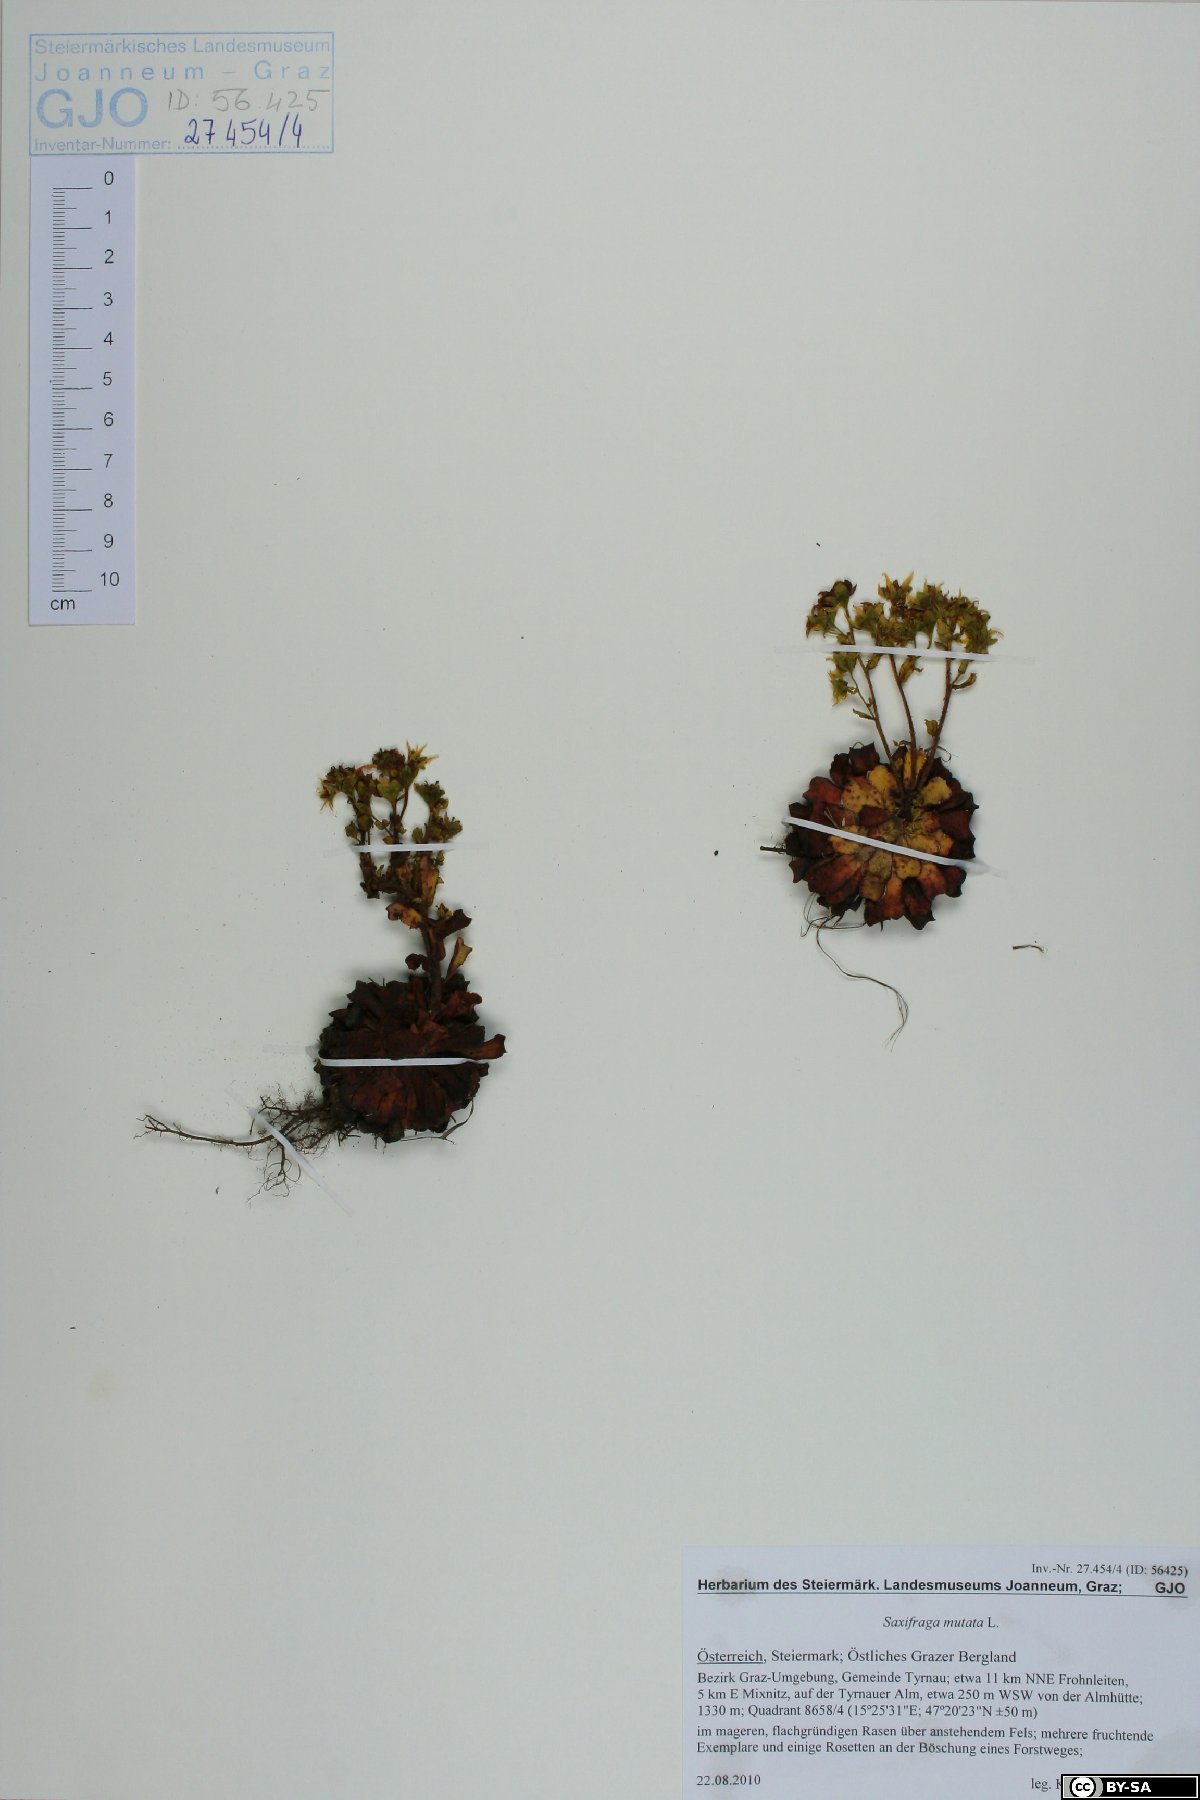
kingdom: Plantae
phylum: Tracheophyta
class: Magnoliopsida
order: Saxifragales
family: Saxifragaceae
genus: Saxifraga
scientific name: Saxifraga mutata
